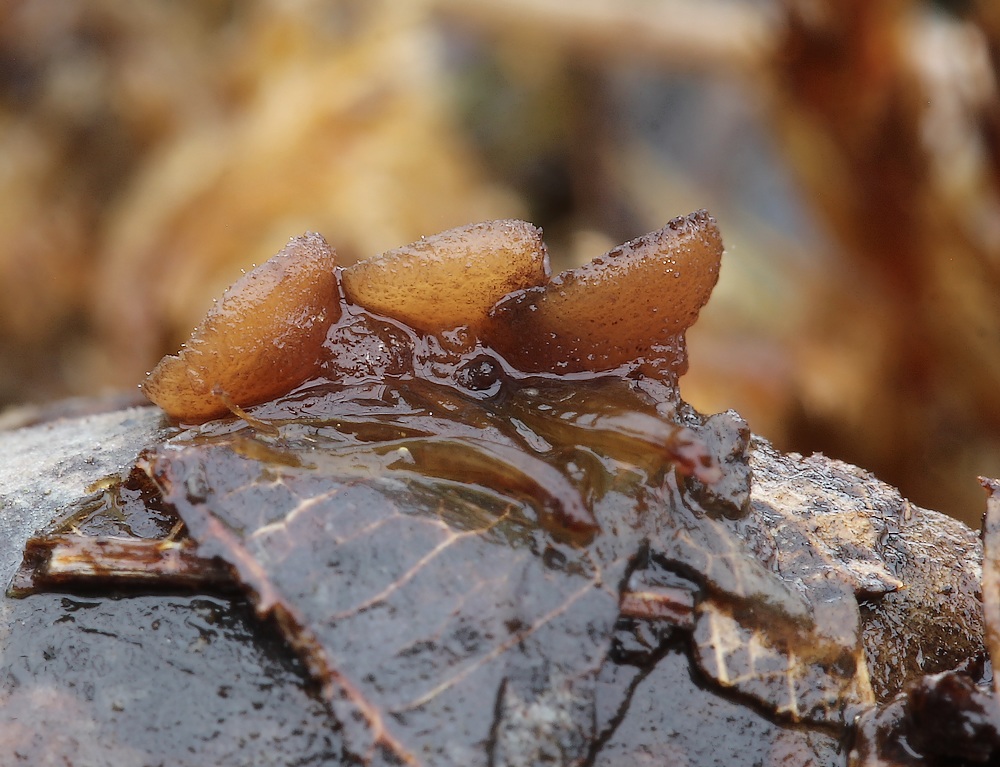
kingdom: Fungi
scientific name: Fungi
